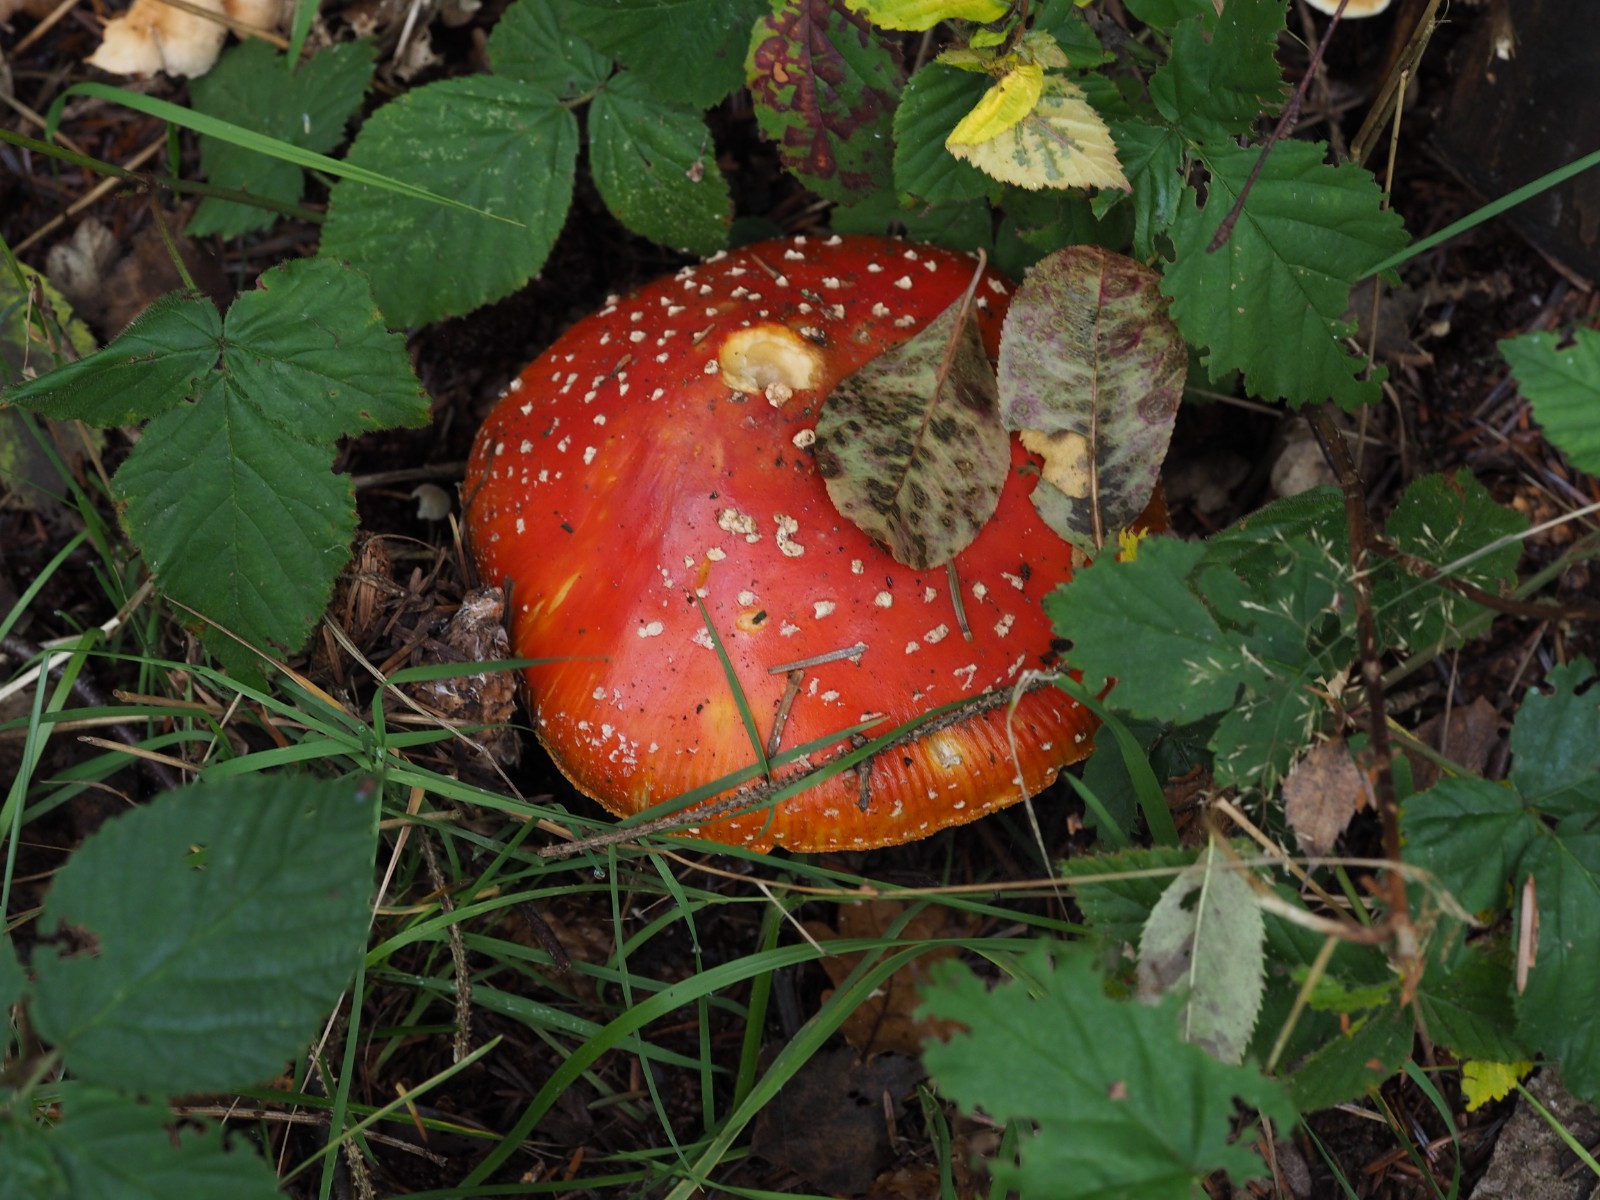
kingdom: Fungi
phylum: Basidiomycota
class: Agaricomycetes
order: Agaricales
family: Amanitaceae
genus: Amanita
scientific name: Amanita muscaria
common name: rød fluesvamp
